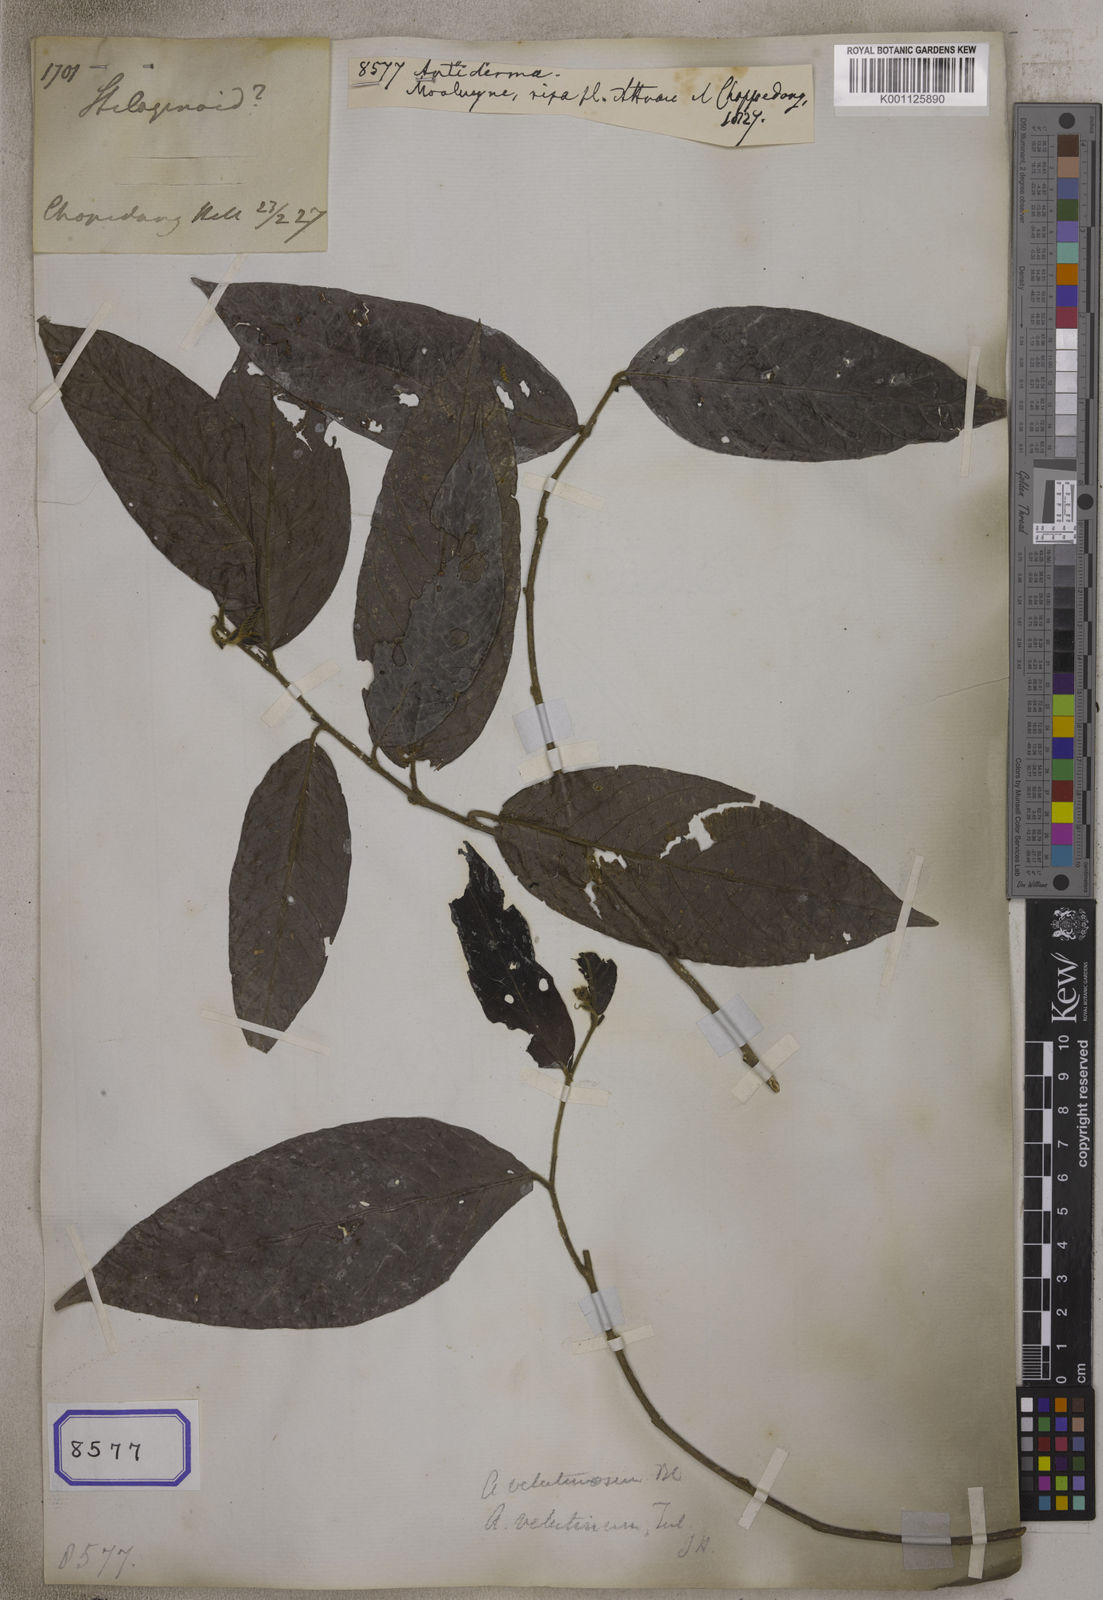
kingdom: Plantae
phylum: Tracheophyta
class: Magnoliopsida
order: Malpighiales
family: Phyllanthaceae
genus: Antidesma
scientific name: Antidesma
